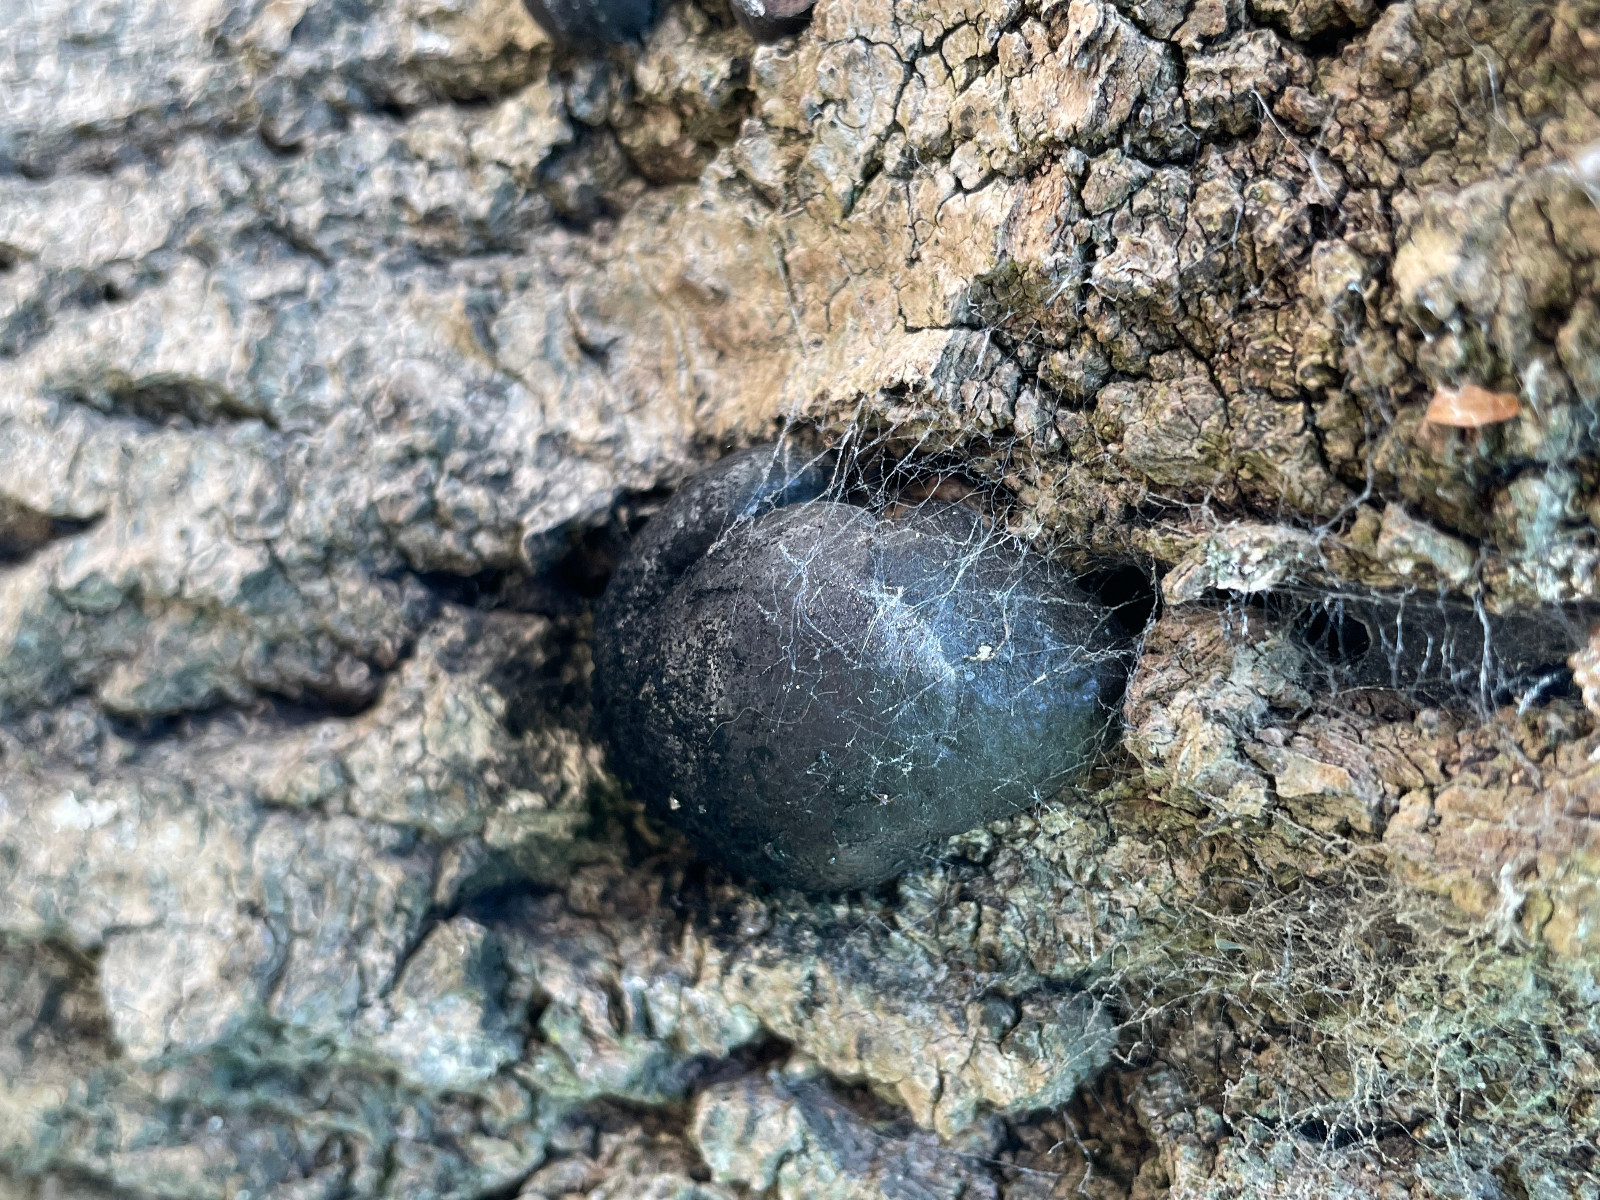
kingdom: Fungi
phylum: Ascomycota
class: Sordariomycetes
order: Xylariales
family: Hypoxylaceae
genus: Daldinia
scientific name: Daldinia
